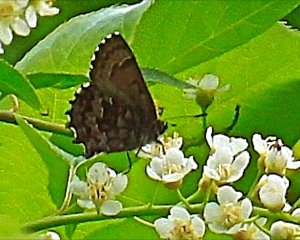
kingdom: Animalia
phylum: Arthropoda
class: Insecta
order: Lepidoptera
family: Lycaenidae
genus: Incisalia
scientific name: Incisalia niphon
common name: Eastern Pine Elfin
